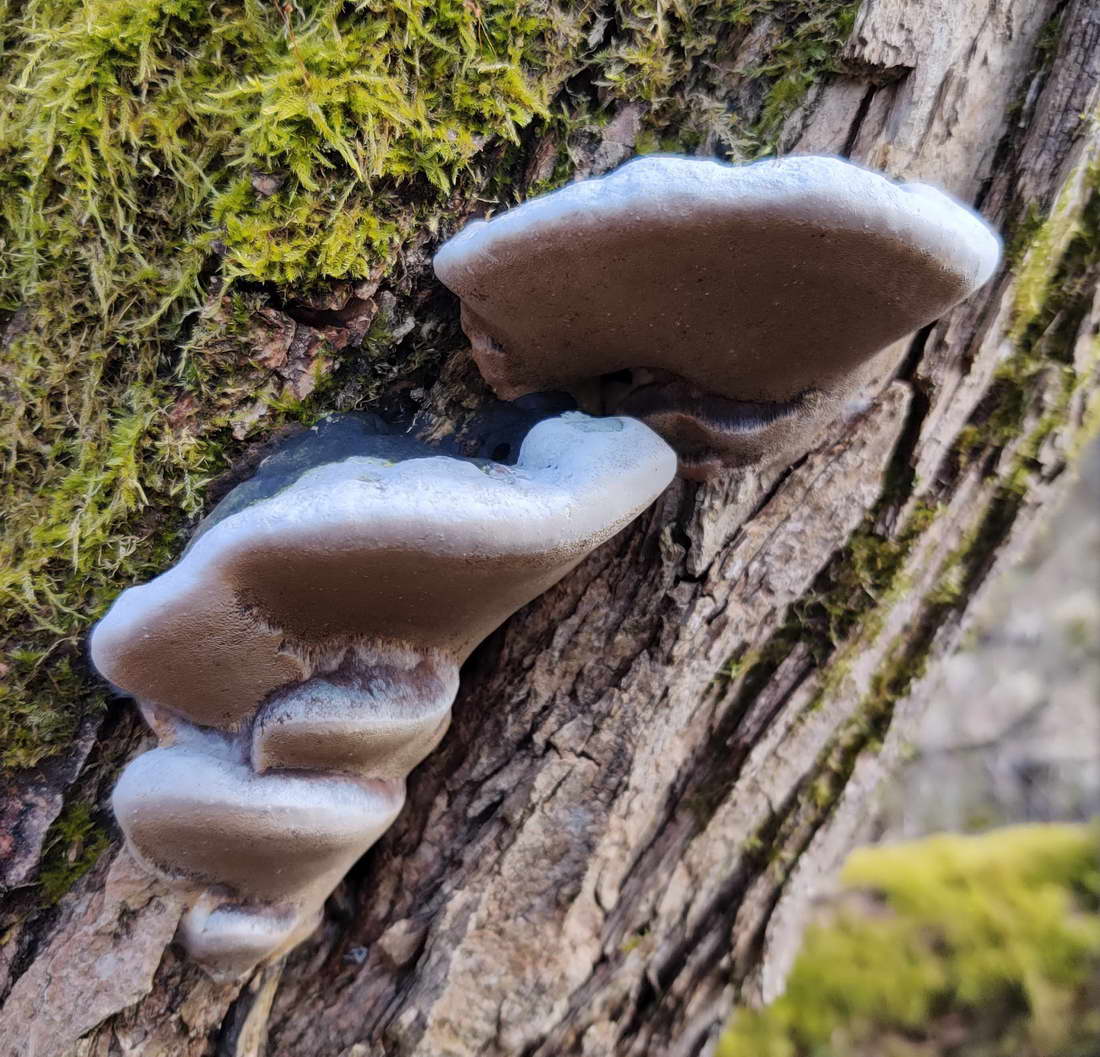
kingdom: Fungi
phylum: Basidiomycota
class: Agaricomycetes
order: Hymenochaetales
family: Hymenochaetaceae
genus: Phellinus
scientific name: Phellinus igniarius
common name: almindelig ildporesvamp
